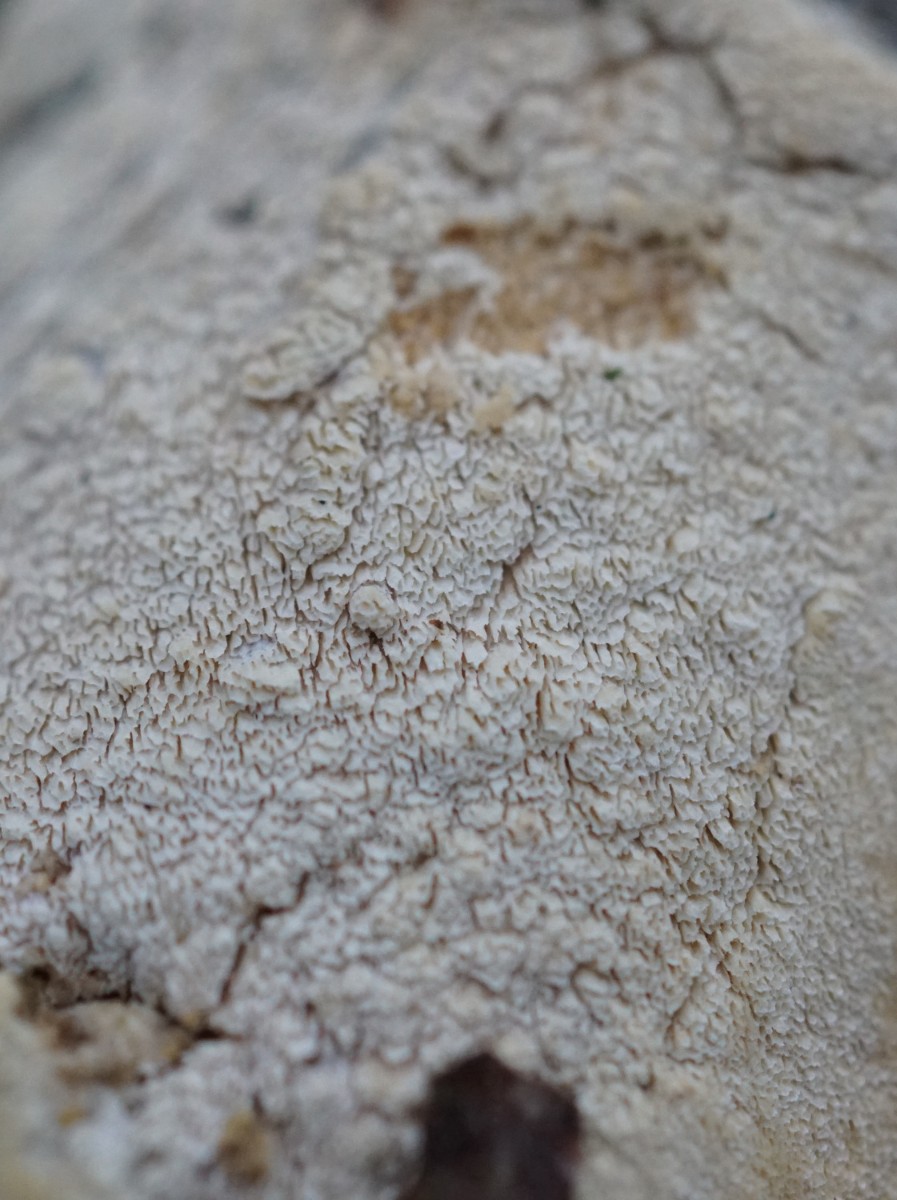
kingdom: Fungi
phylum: Basidiomycota
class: Agaricomycetes
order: Hymenochaetales
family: Schizoporaceae
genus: Xylodon
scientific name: Xylodon subtropicus
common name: labyrint-tandsvamp
